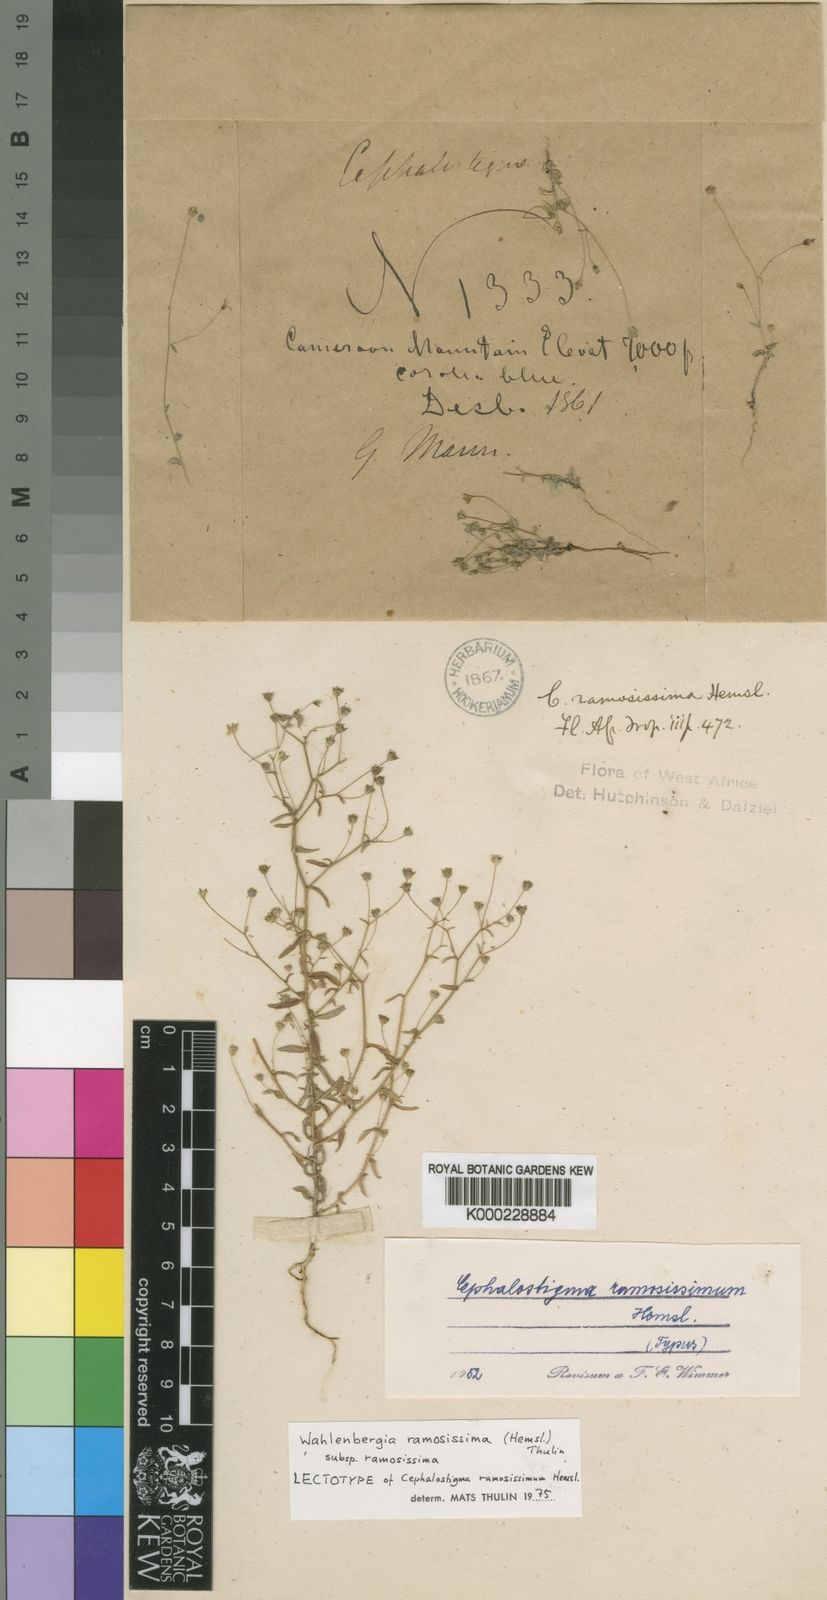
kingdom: Plantae
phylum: Tracheophyta
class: Magnoliopsida
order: Asterales
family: Campanulaceae
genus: Wahlenbergia
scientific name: Wahlenbergia ramosissima
